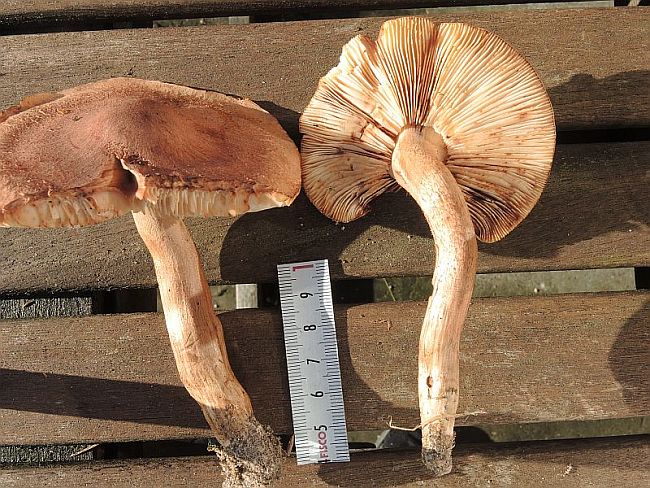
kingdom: Fungi
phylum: Basidiomycota
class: Agaricomycetes
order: Agaricales
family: Tricholomataceae
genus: Tricholoma
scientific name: Tricholoma imbricatum
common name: skællet ridderhat
